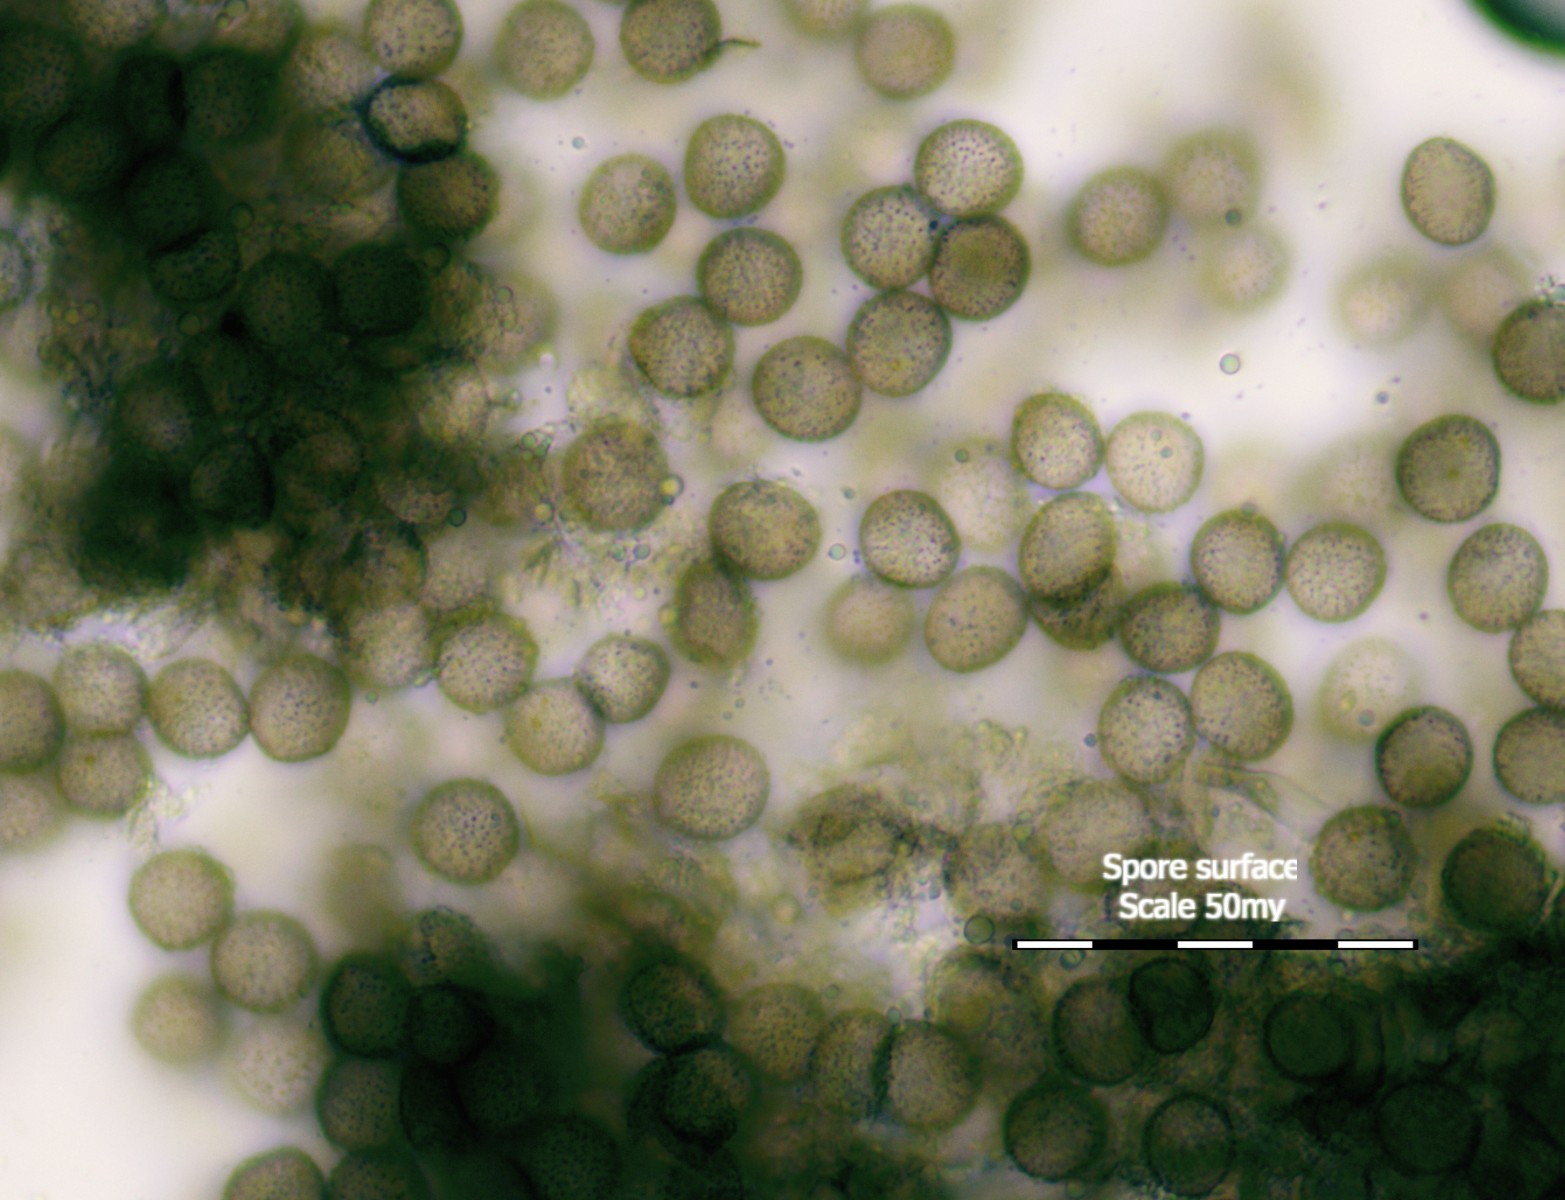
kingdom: Protozoa
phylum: Mycetozoa
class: Myxomycetes
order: Physarales
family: Physaraceae
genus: Badhamia
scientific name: Badhamia utricularis
